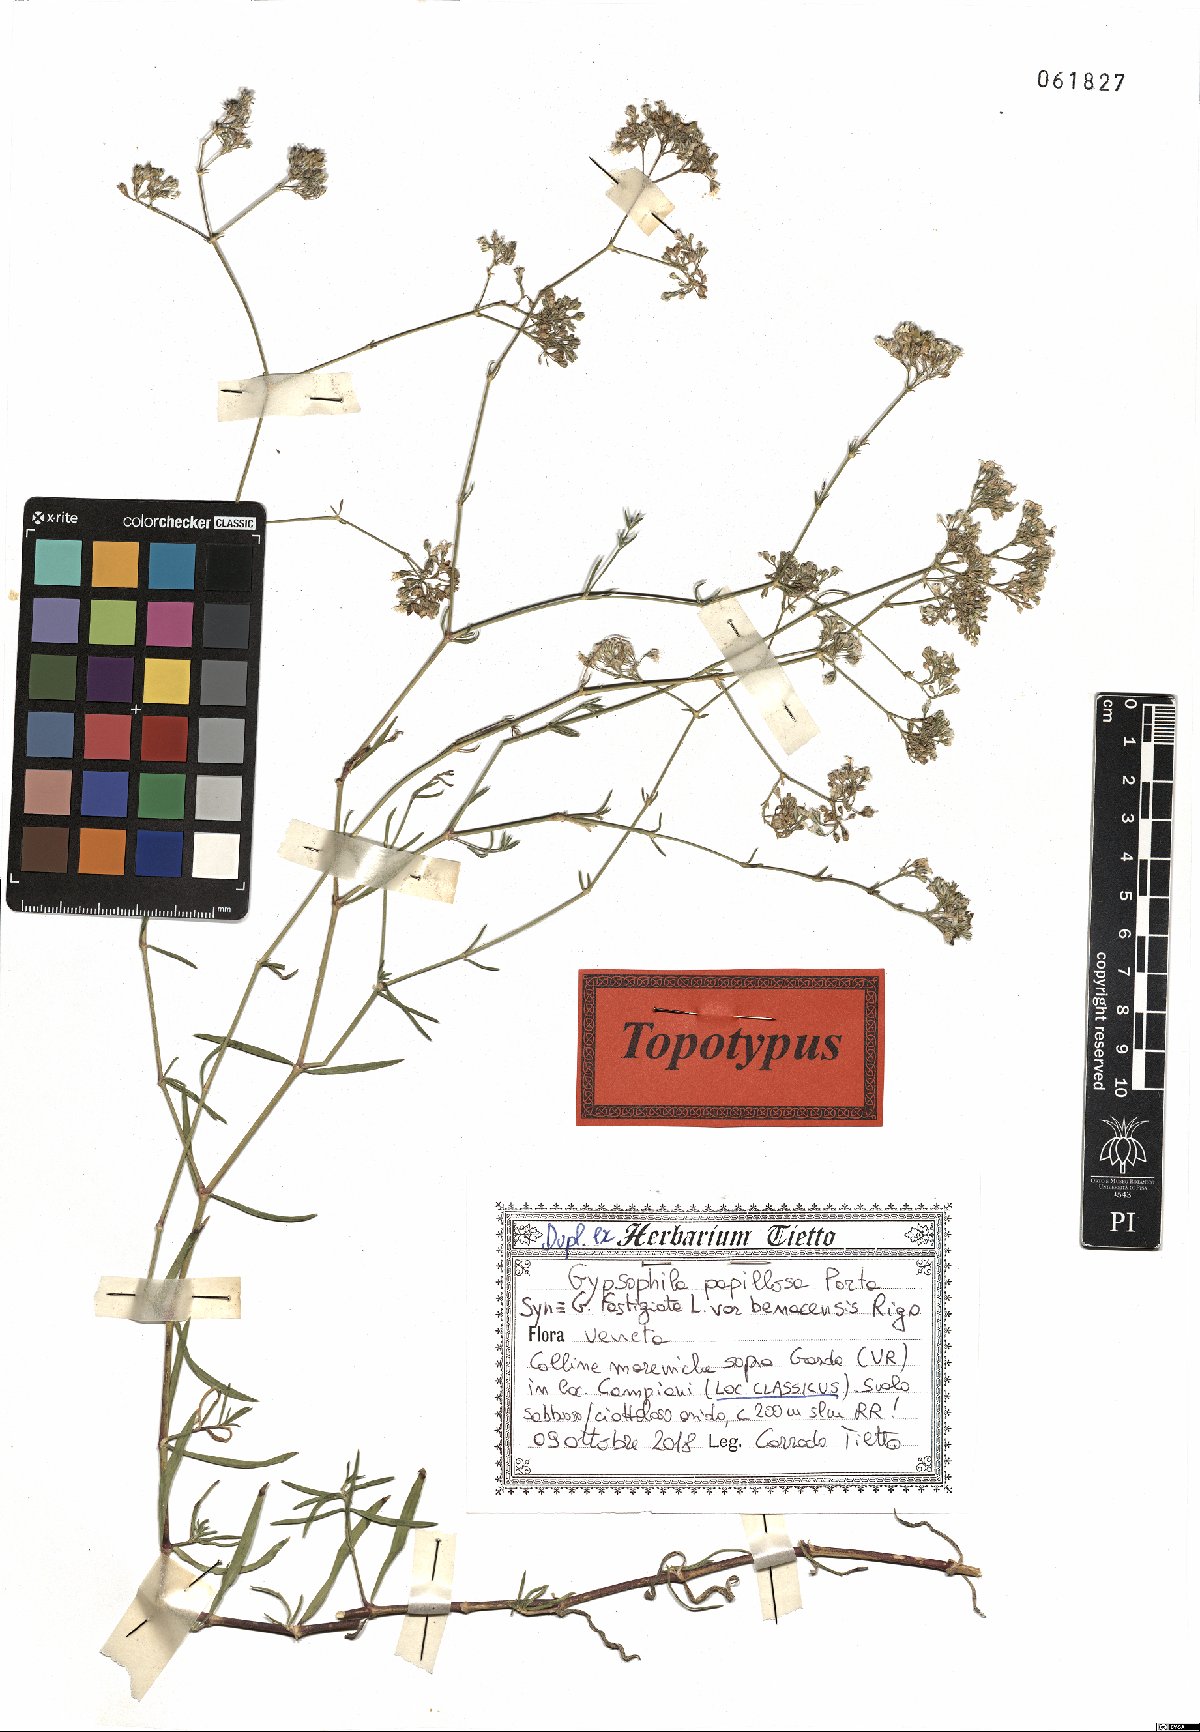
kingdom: Plantae
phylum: Tracheophyta
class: Magnoliopsida
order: Caryophyllales
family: Caryophyllaceae
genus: Gypsophila
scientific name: Gypsophila papillosa
